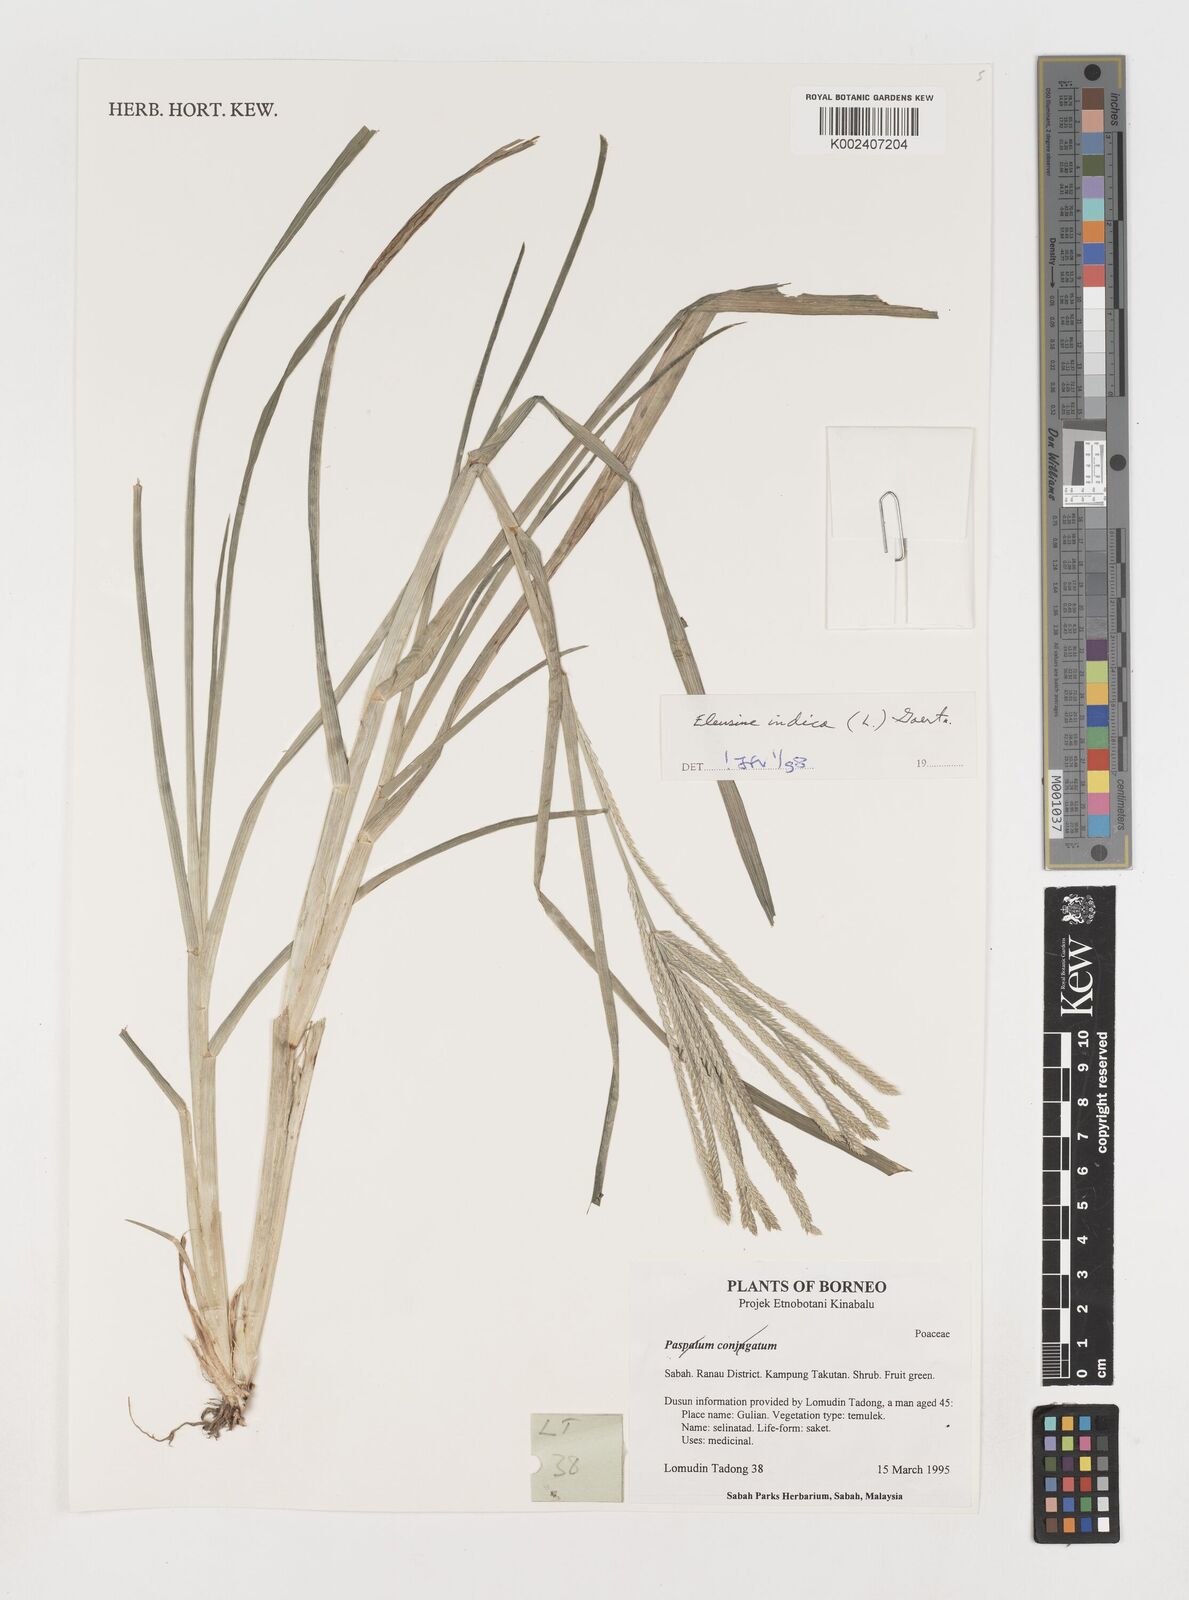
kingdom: Plantae
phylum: Tracheophyta
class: Liliopsida
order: Poales
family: Poaceae
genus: Eleusine
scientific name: Eleusine indica
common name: Yard-grass
